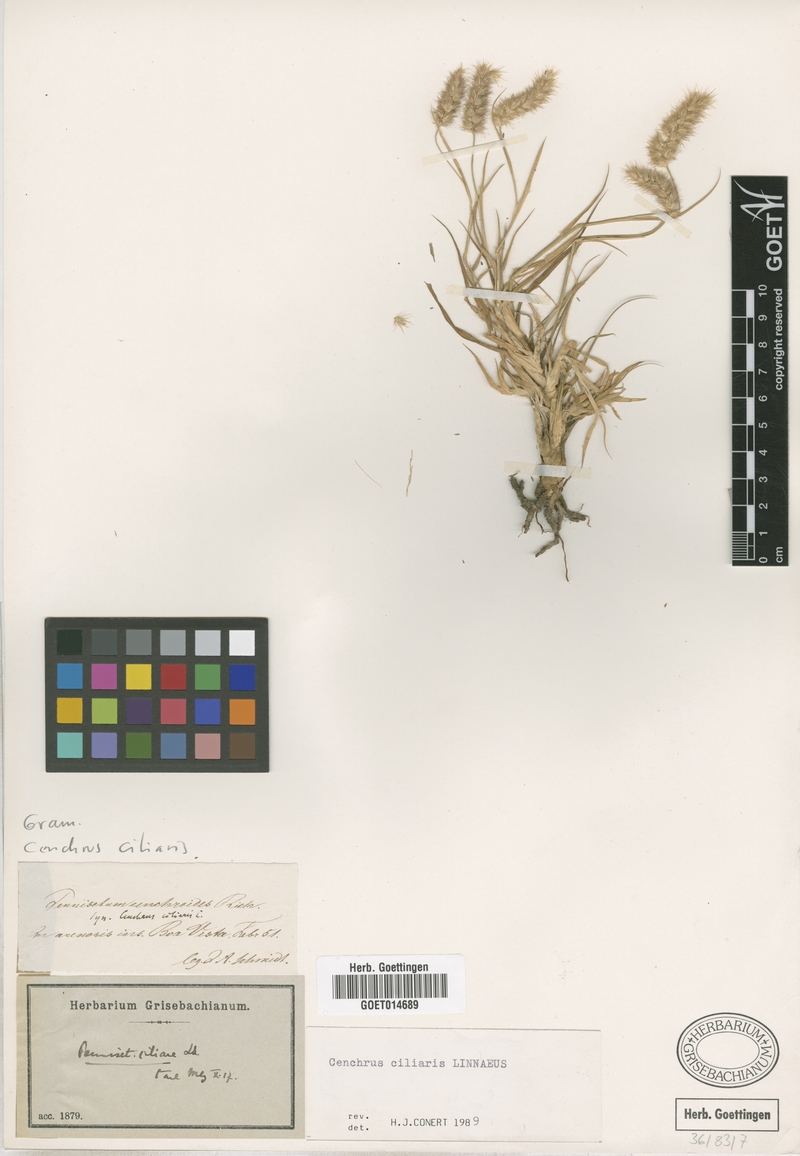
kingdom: Plantae
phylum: Tracheophyta
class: Liliopsida
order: Poales
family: Poaceae
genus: Cenchrus
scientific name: Cenchrus ciliaris
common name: Buffelgrass
